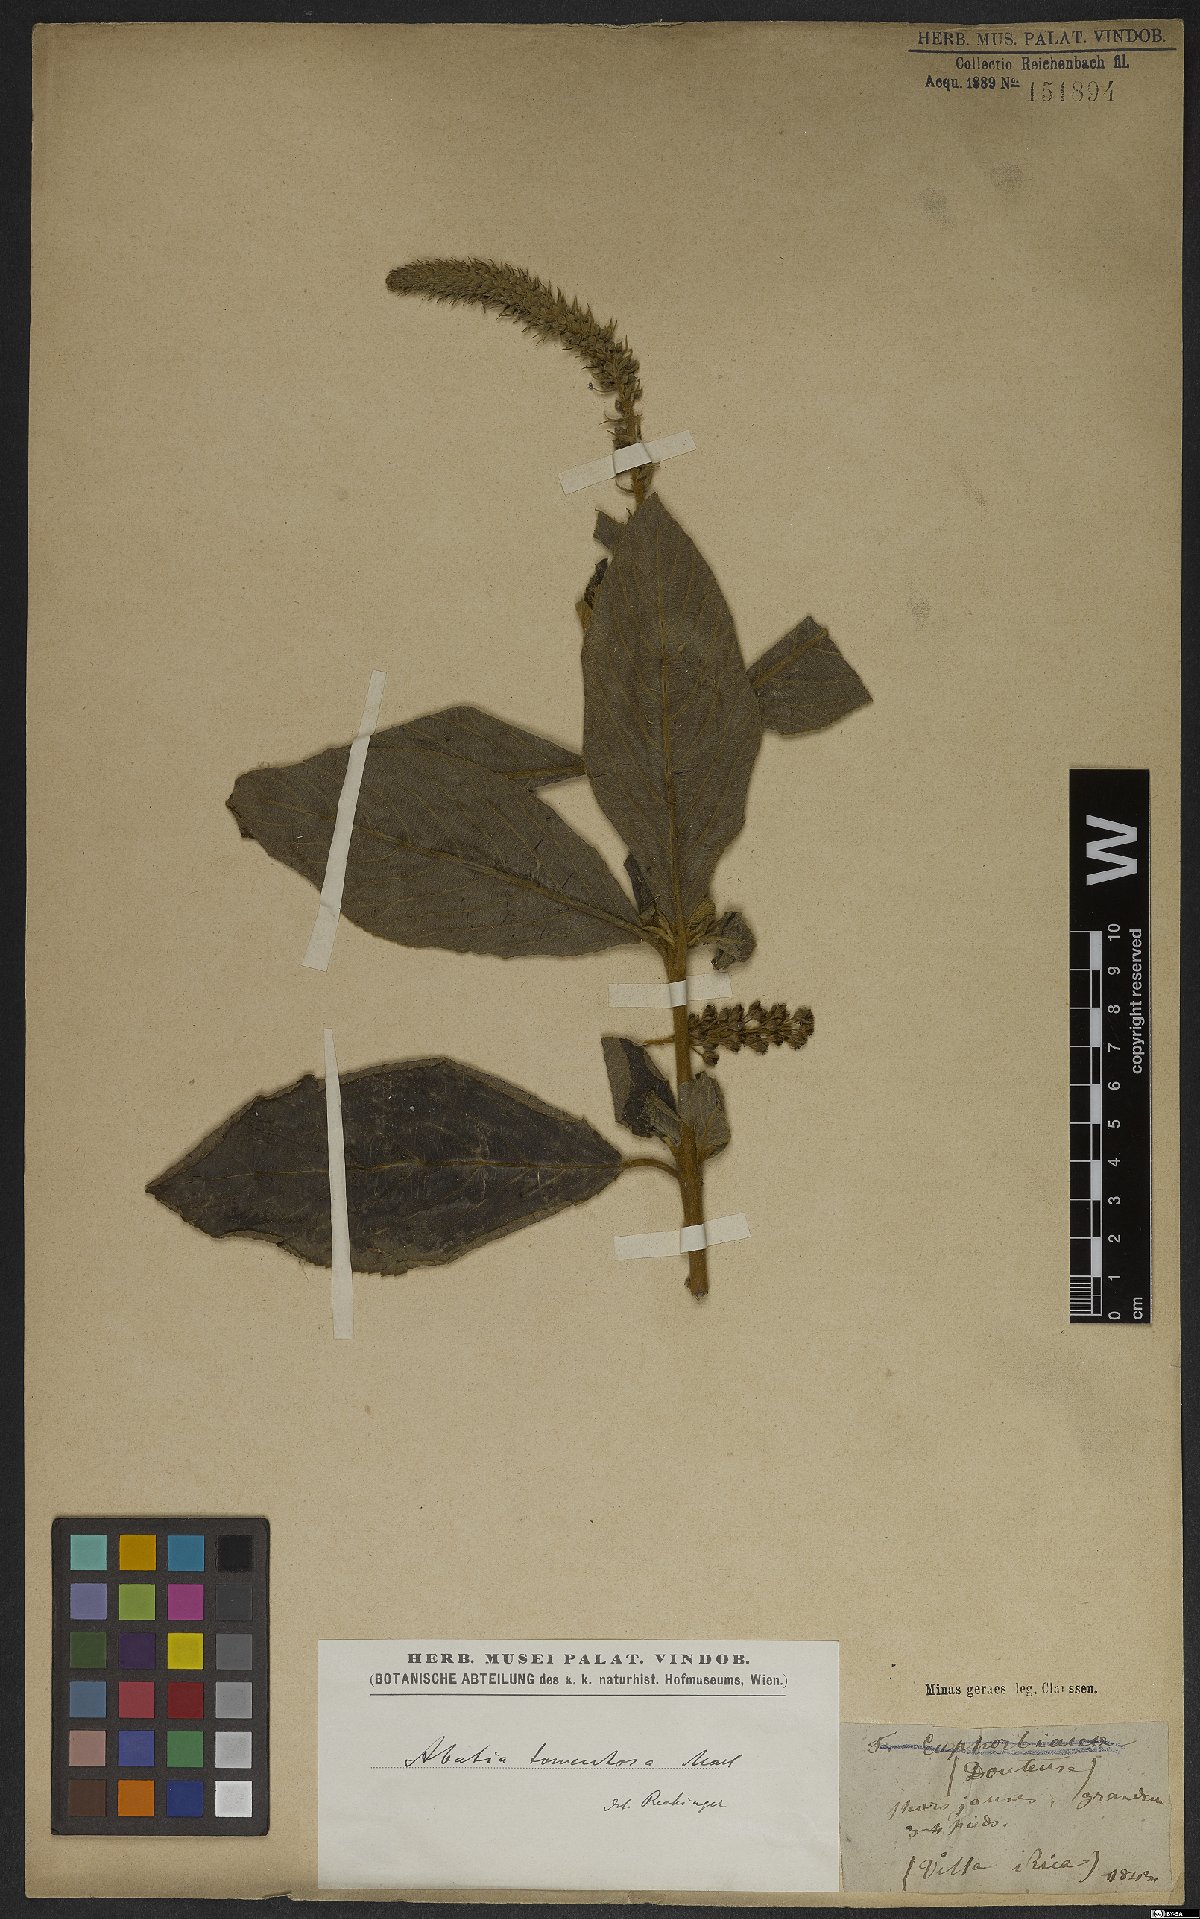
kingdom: Plantae
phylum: Tracheophyta
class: Magnoliopsida
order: Malpighiales
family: Salicaceae
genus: Abatia
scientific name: Abatia americana
